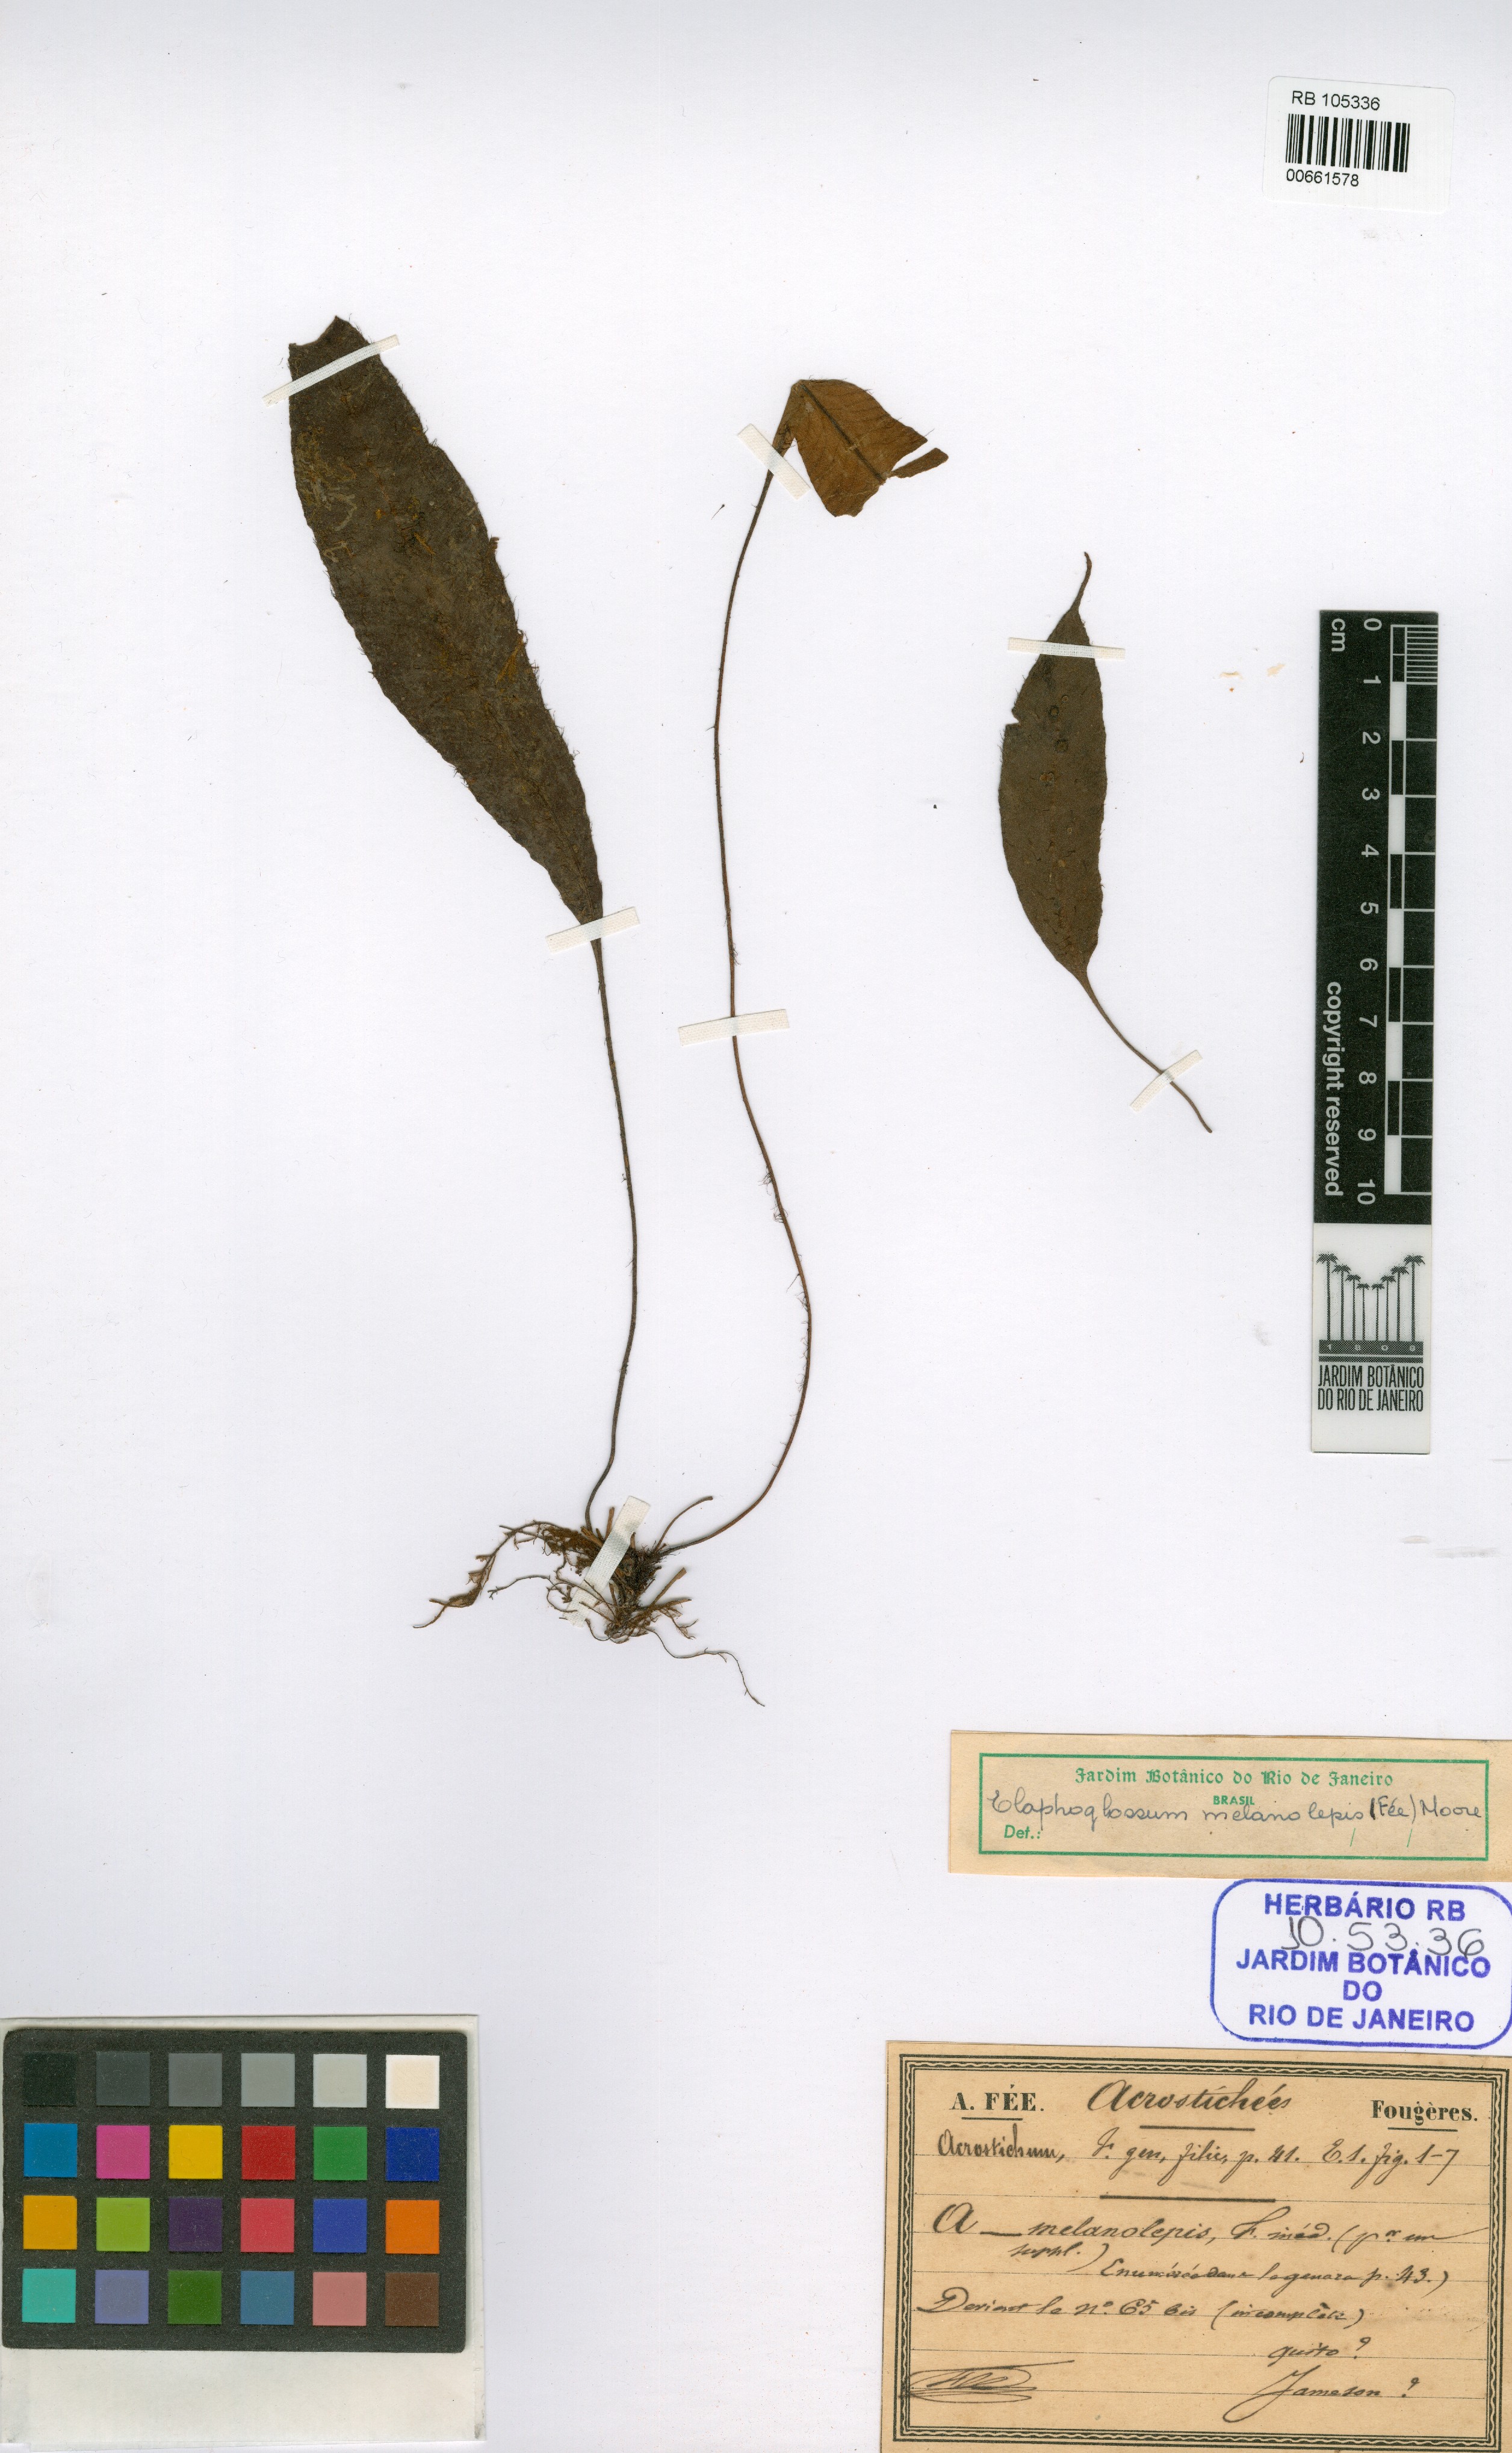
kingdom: Plantae
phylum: Tracheophyta
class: Polypodiopsida
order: Polypodiales
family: Pteridaceae
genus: Acrostichum
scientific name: Acrostichum melanolepis
